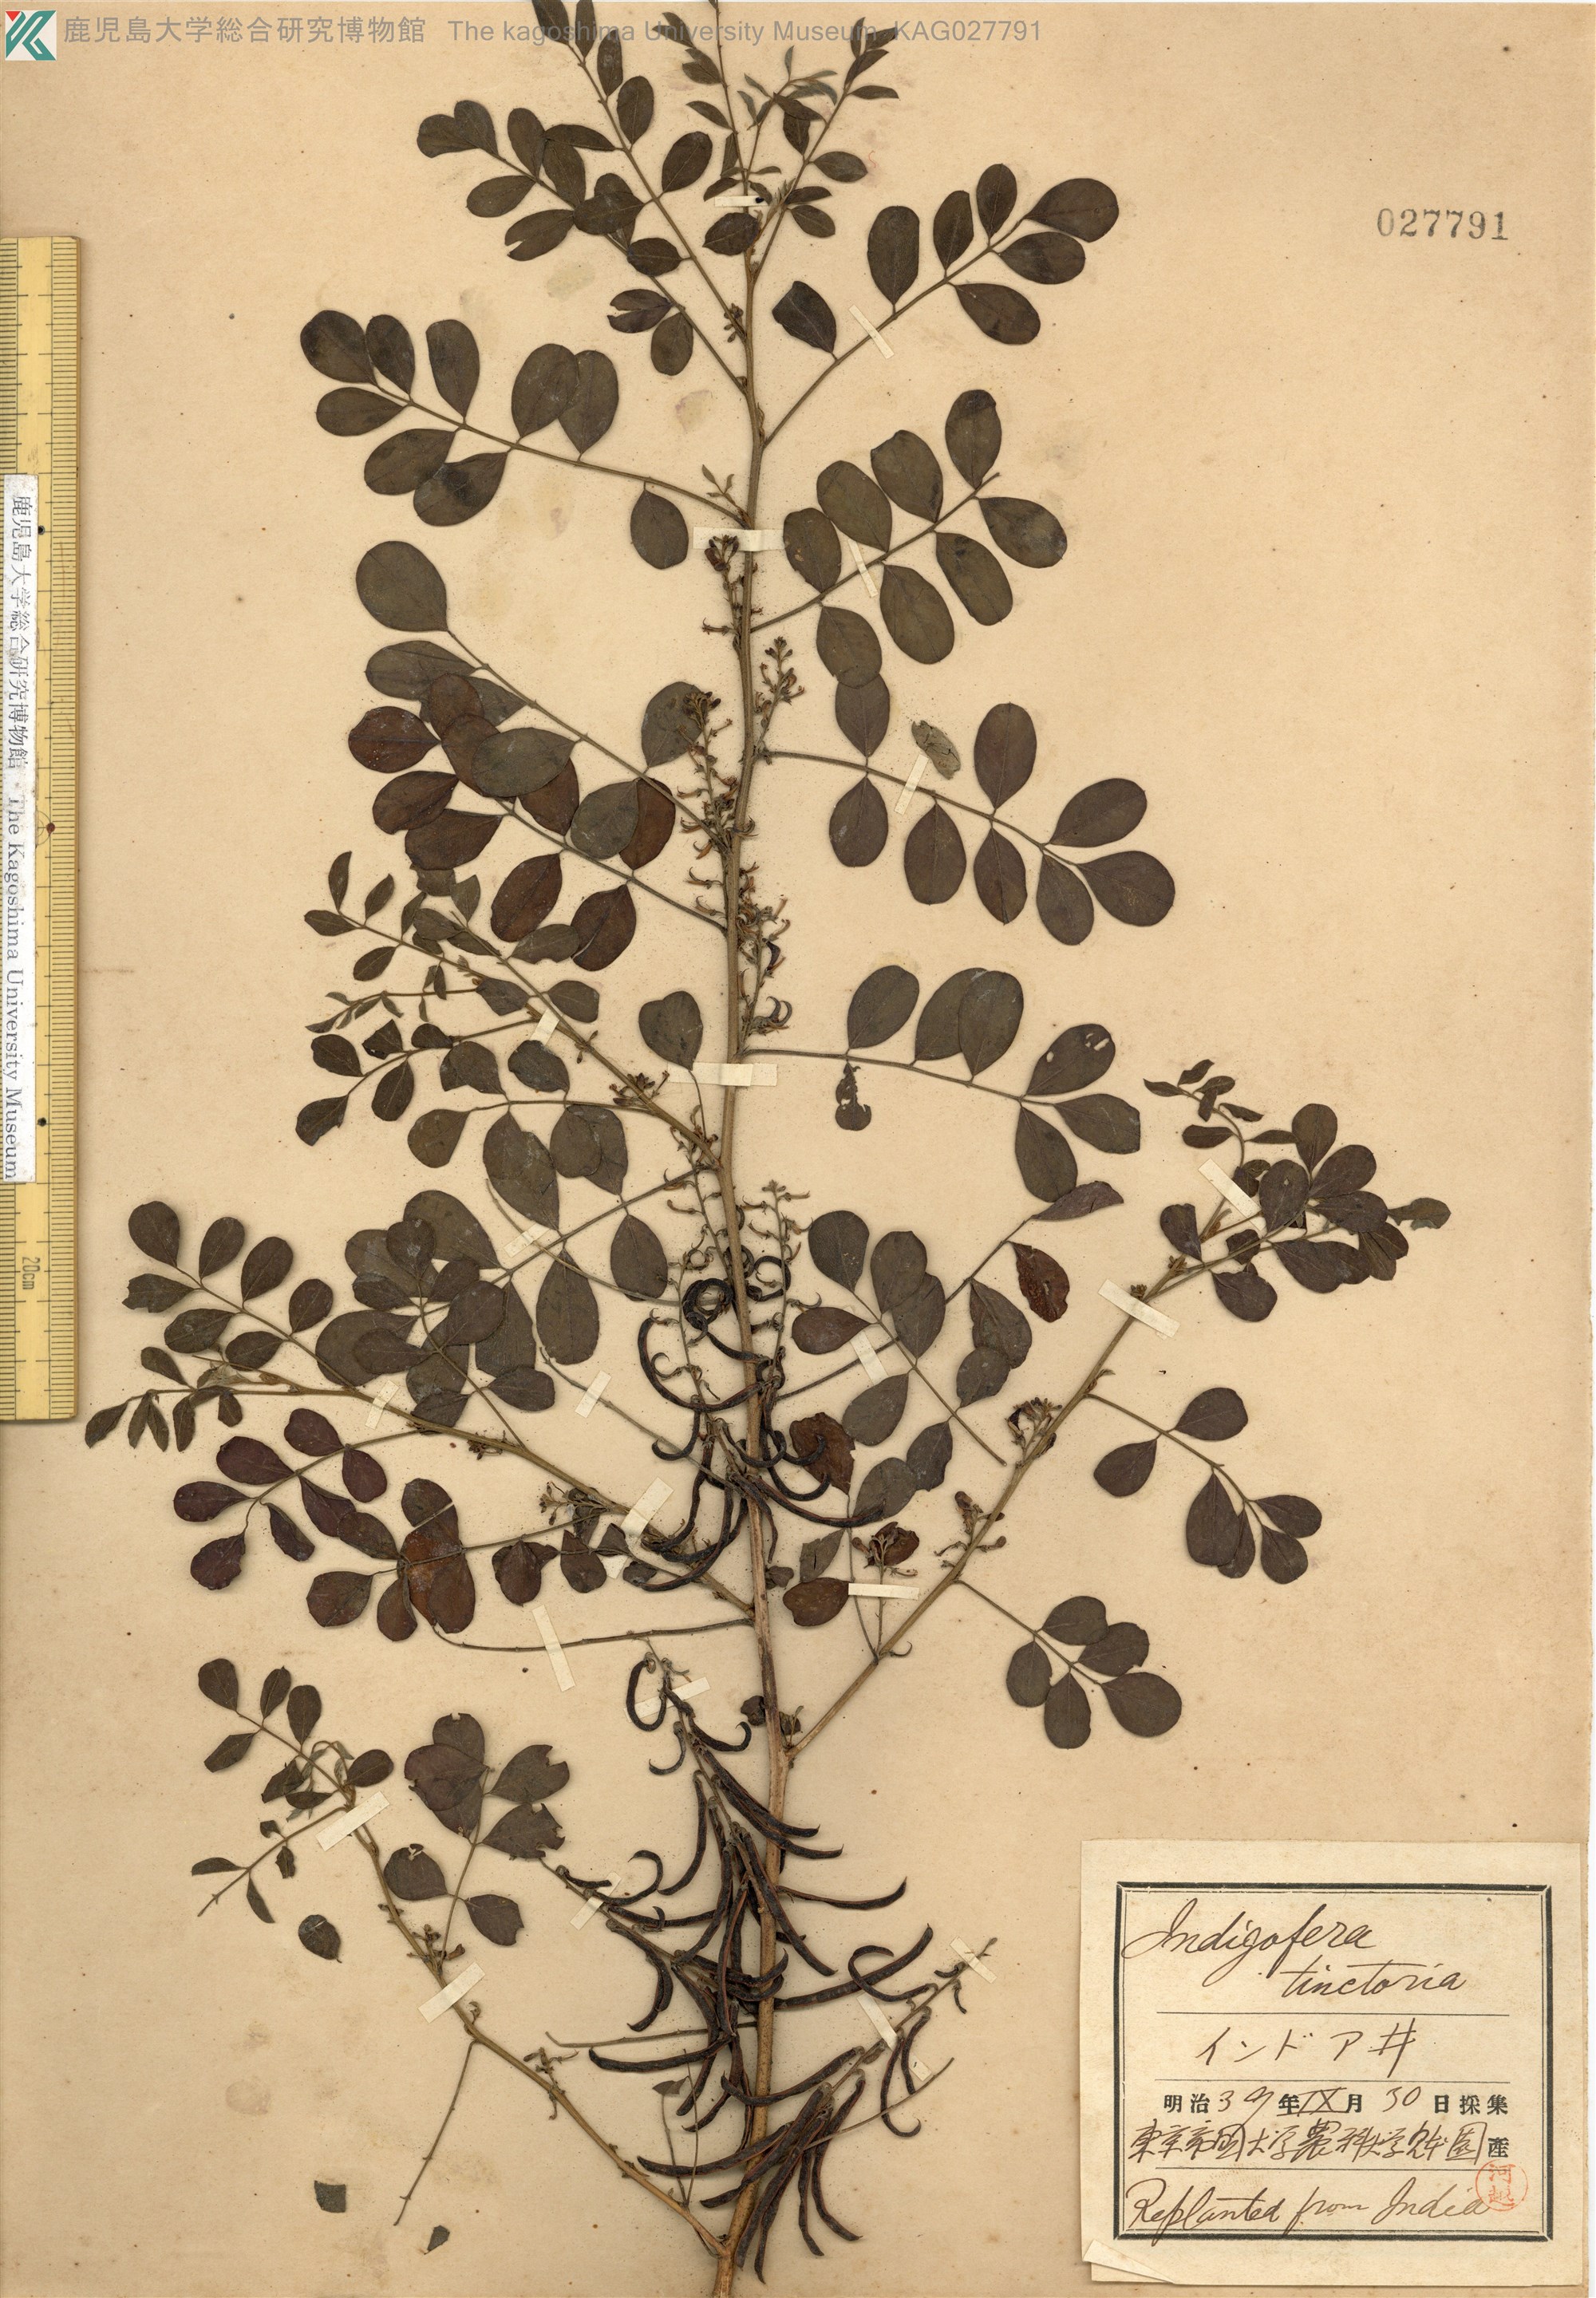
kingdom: Plantae
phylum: Tracheophyta
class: Magnoliopsida
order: Fabales
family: Fabaceae
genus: Indigofera
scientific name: Indigofera tinctoria
